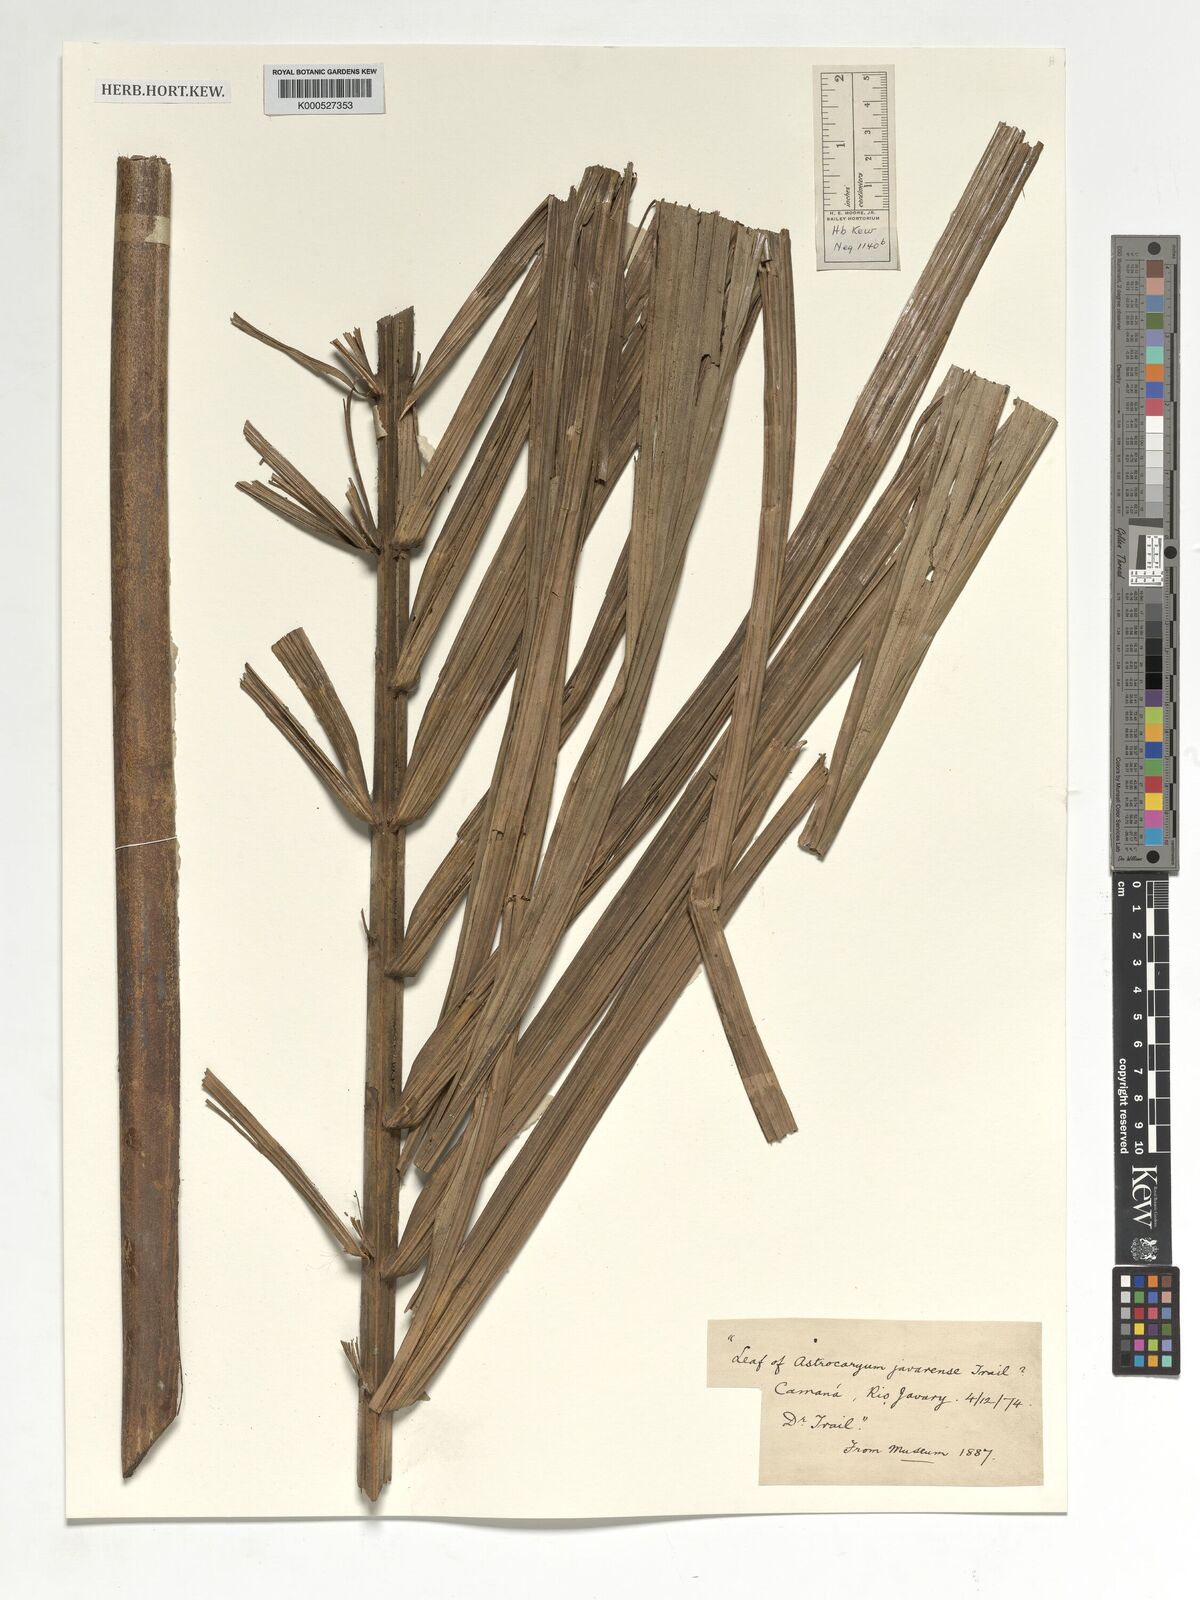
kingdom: Plantae
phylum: Tracheophyta
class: Liliopsida
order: Arecales
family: Arecaceae
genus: Astrocaryum
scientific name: Astrocaryum javarense
